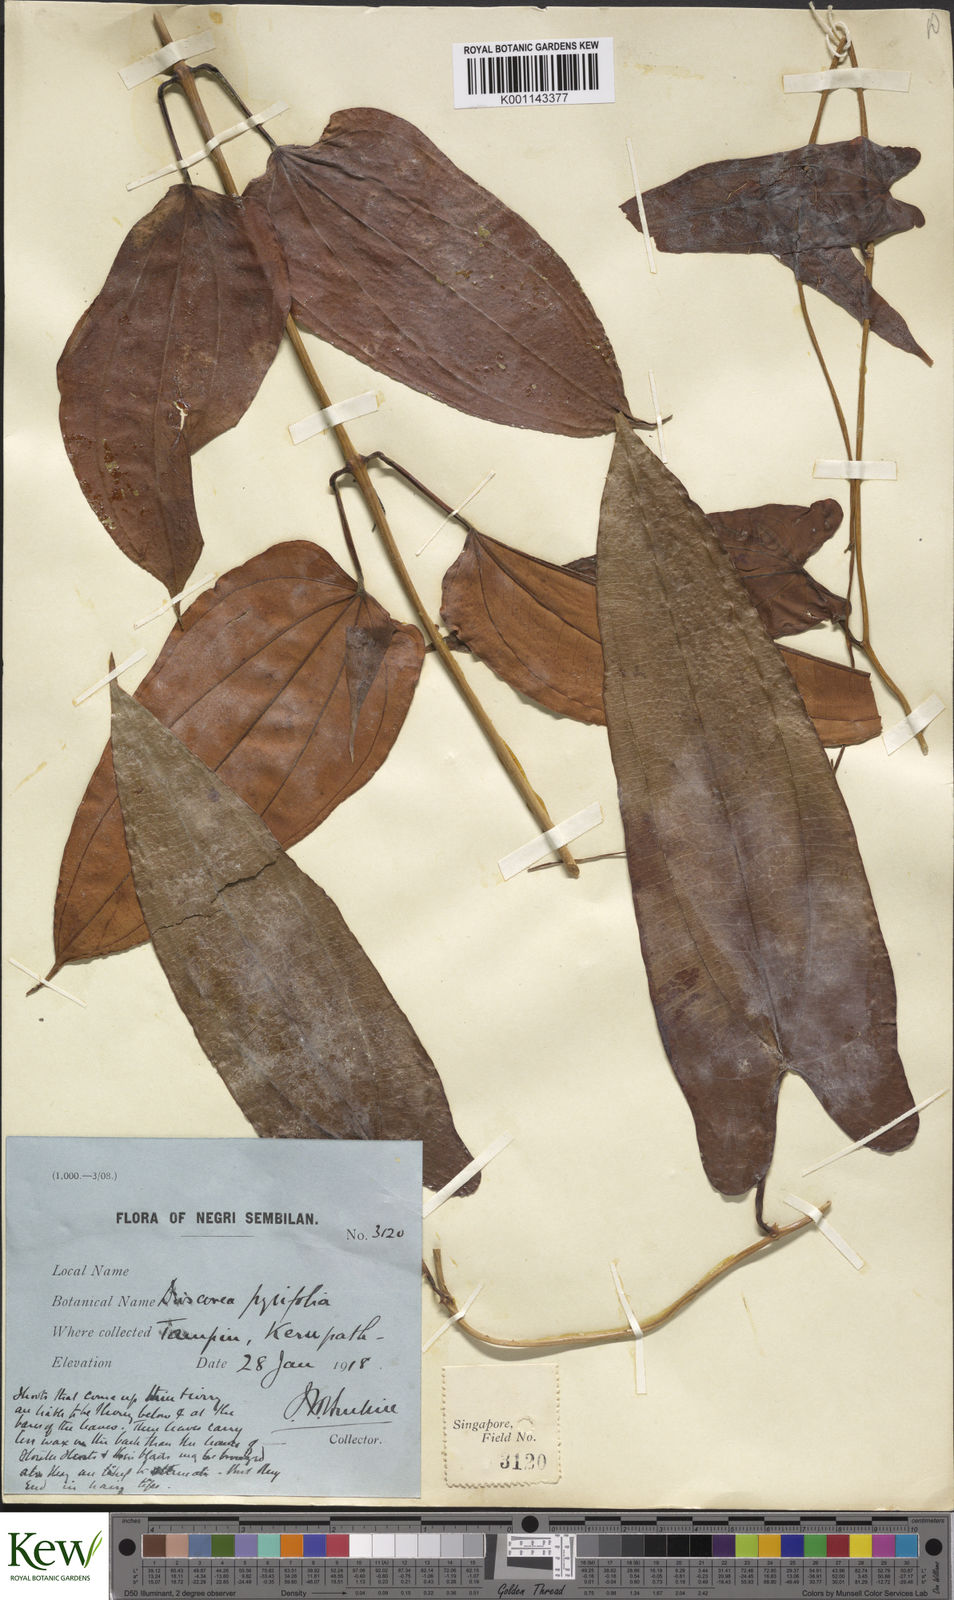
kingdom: Plantae
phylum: Tracheophyta
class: Liliopsida
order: Dioscoreales
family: Dioscoreaceae
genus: Dioscorea
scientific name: Dioscorea pyrifolia
